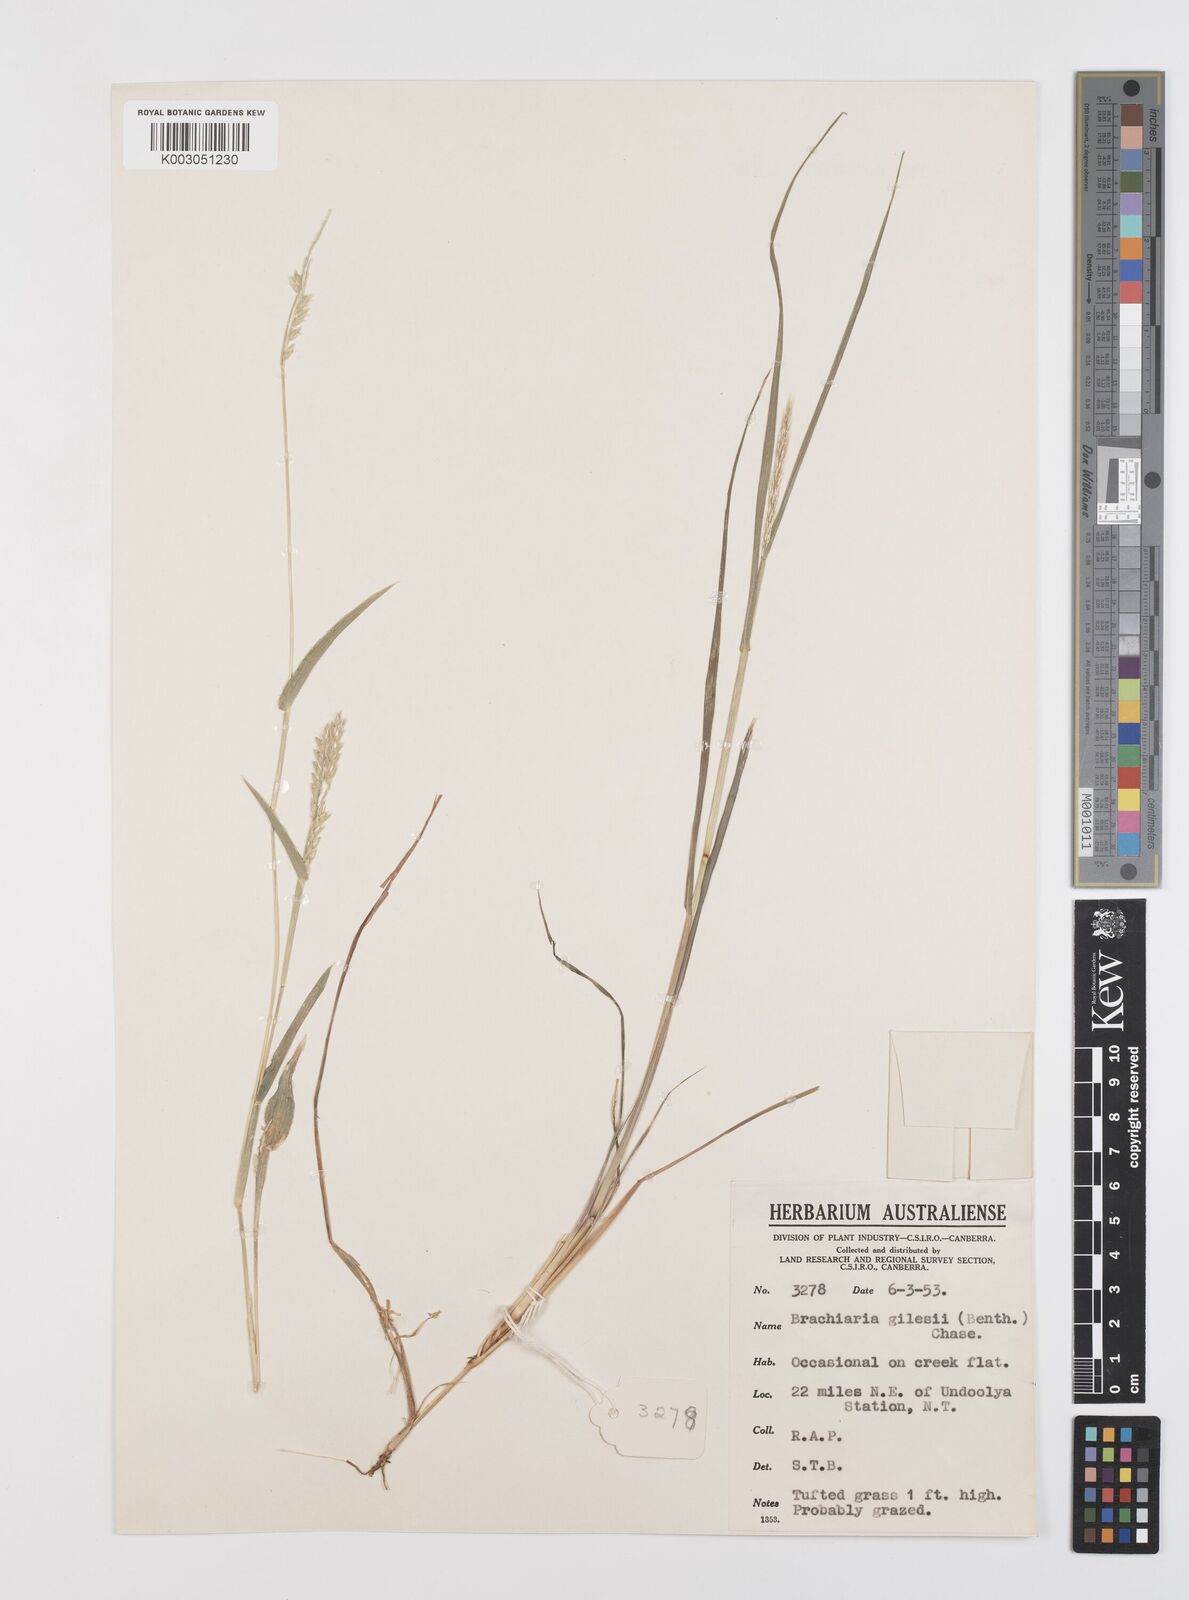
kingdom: Plantae
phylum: Tracheophyta
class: Liliopsida
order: Poales
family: Poaceae
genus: Urochloa
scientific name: Urochloa gilesii
